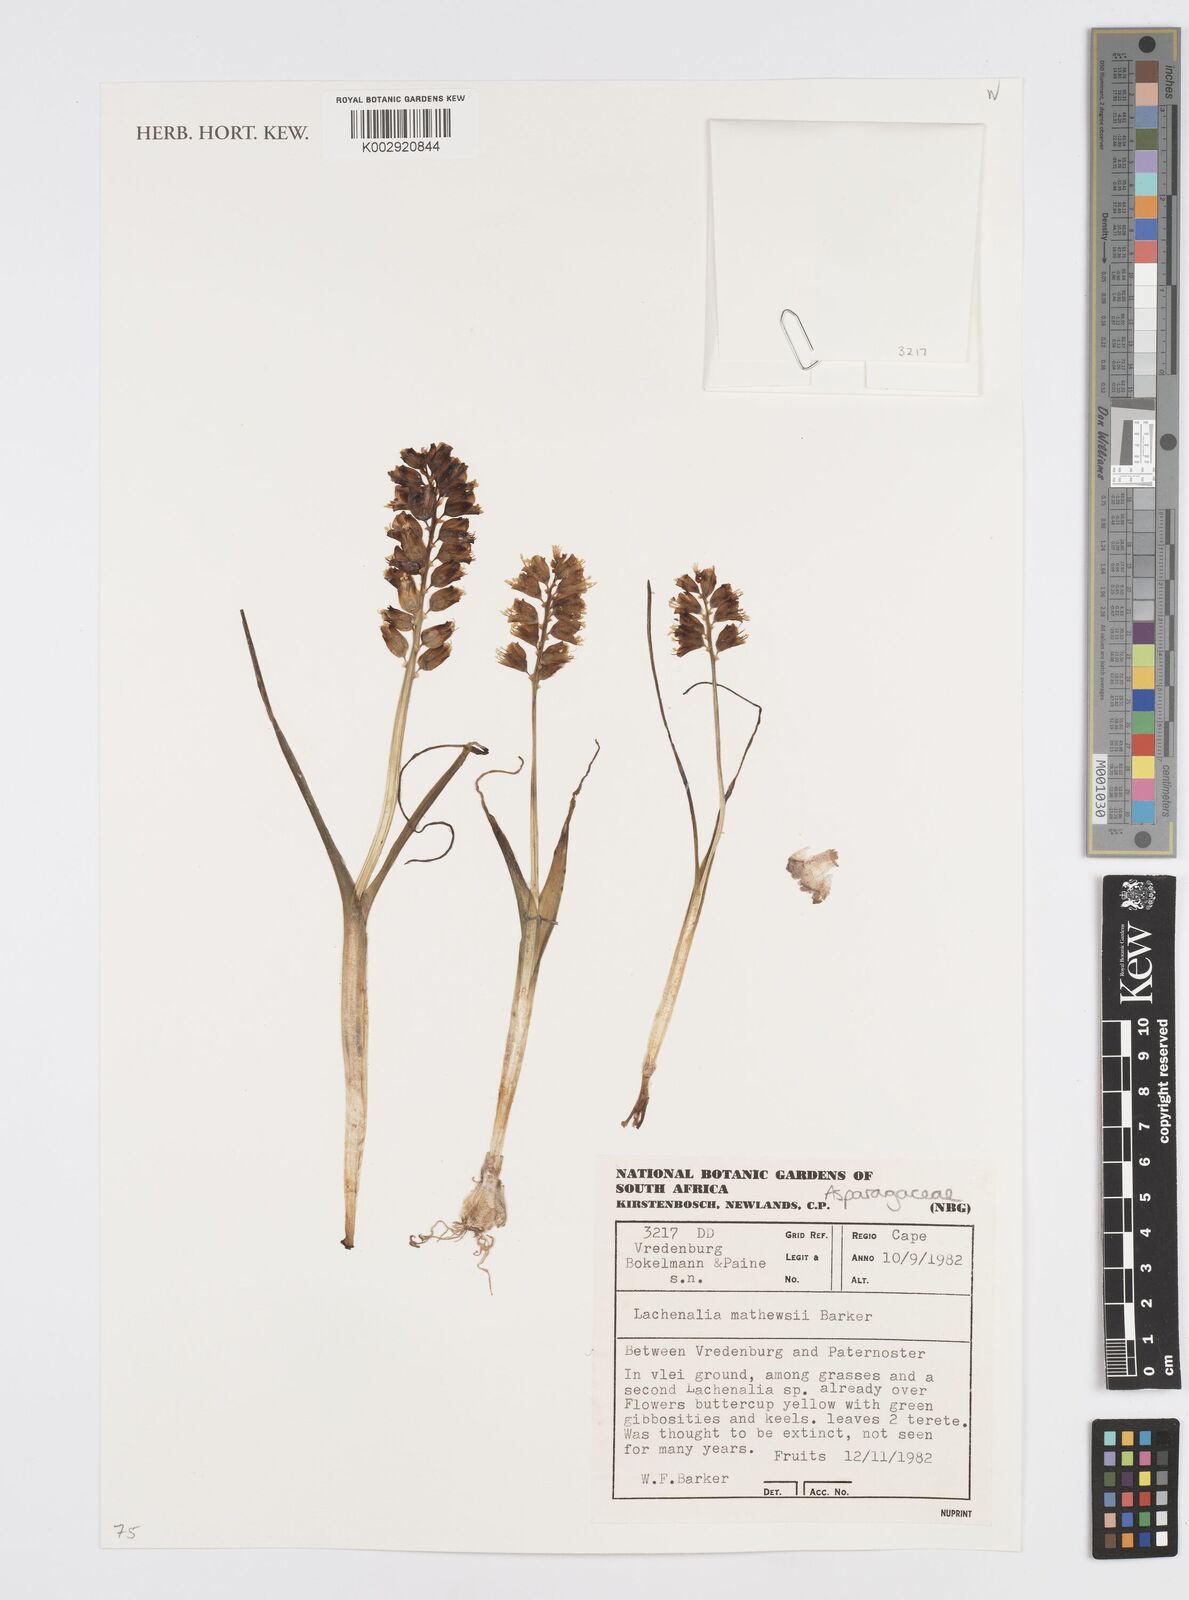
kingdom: Plantae
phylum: Tracheophyta
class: Liliopsida
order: Asparagales
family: Asparagaceae
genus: Lachenalia
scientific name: Lachenalia mathewsii
